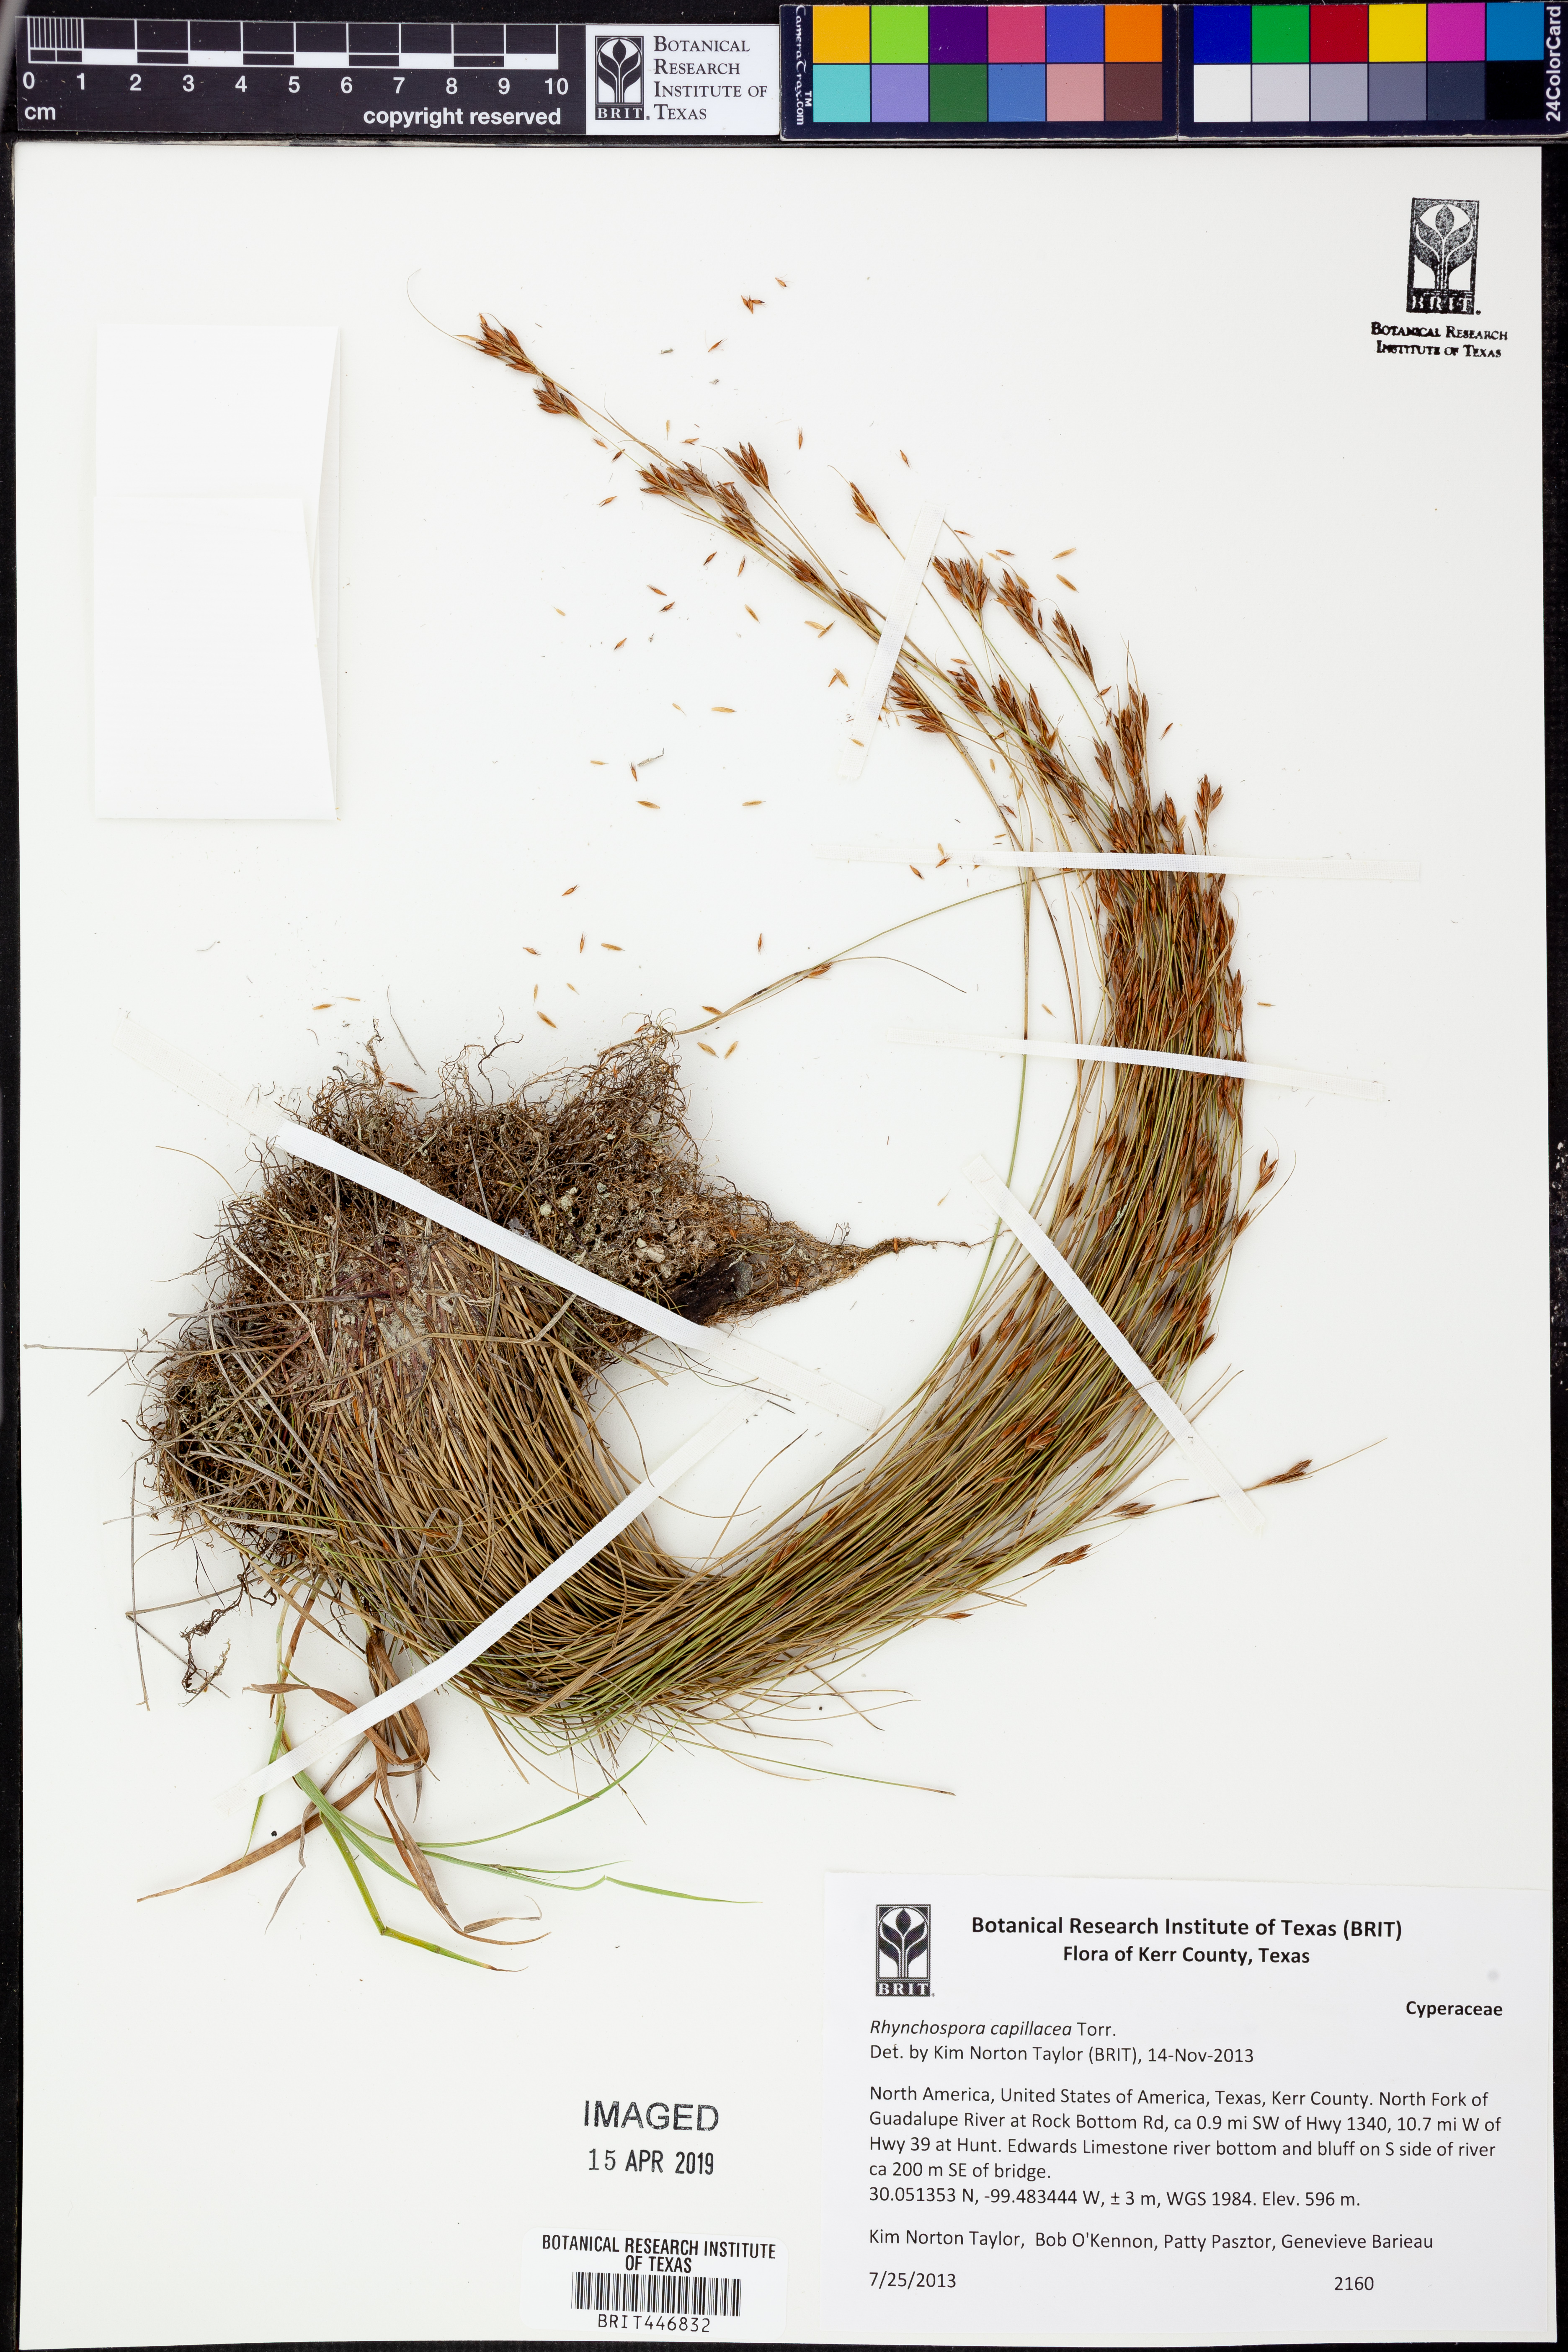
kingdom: Plantae
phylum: Tracheophyta
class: Liliopsida
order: Poales
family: Cyperaceae
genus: Rhynchospora
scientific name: Rhynchospora capillacea
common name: Capillary beakrush
